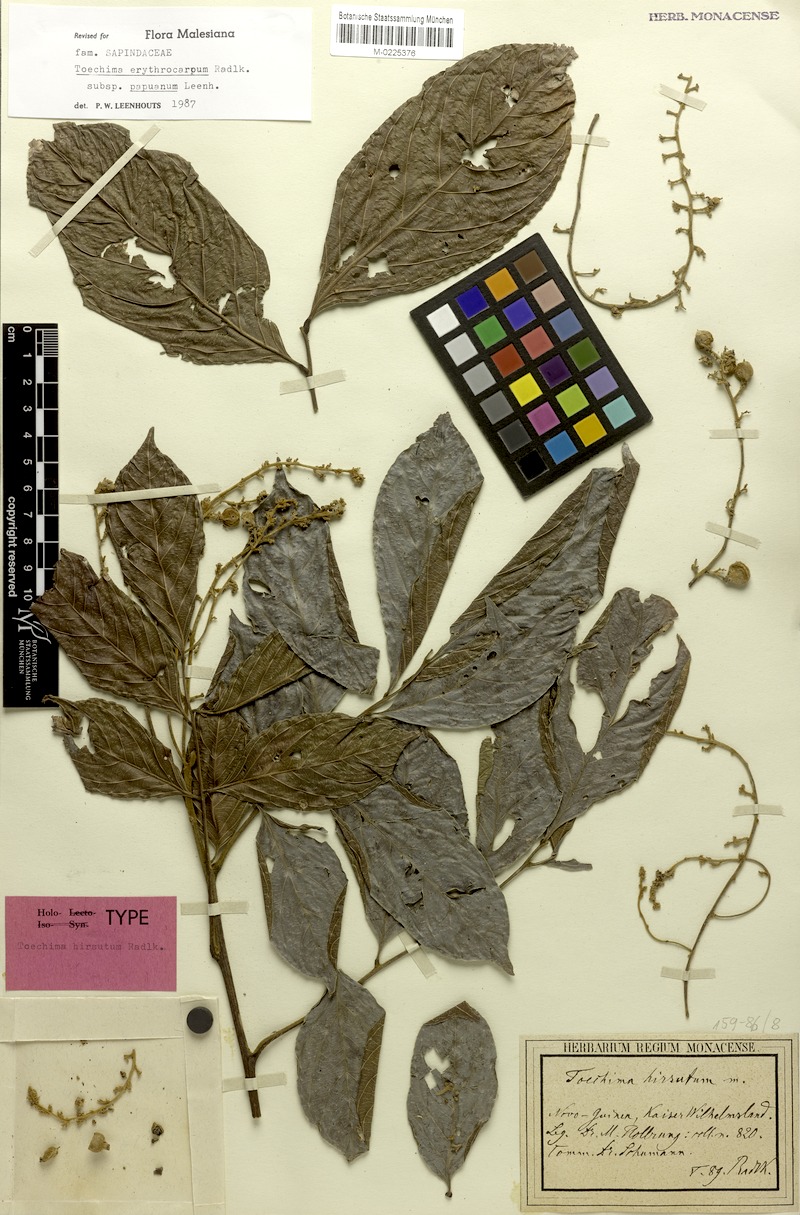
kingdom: Plantae
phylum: Tracheophyta
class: Magnoliopsida
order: Sapindales
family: Sapindaceae
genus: Toechima
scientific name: Toechima erythrocarpum
